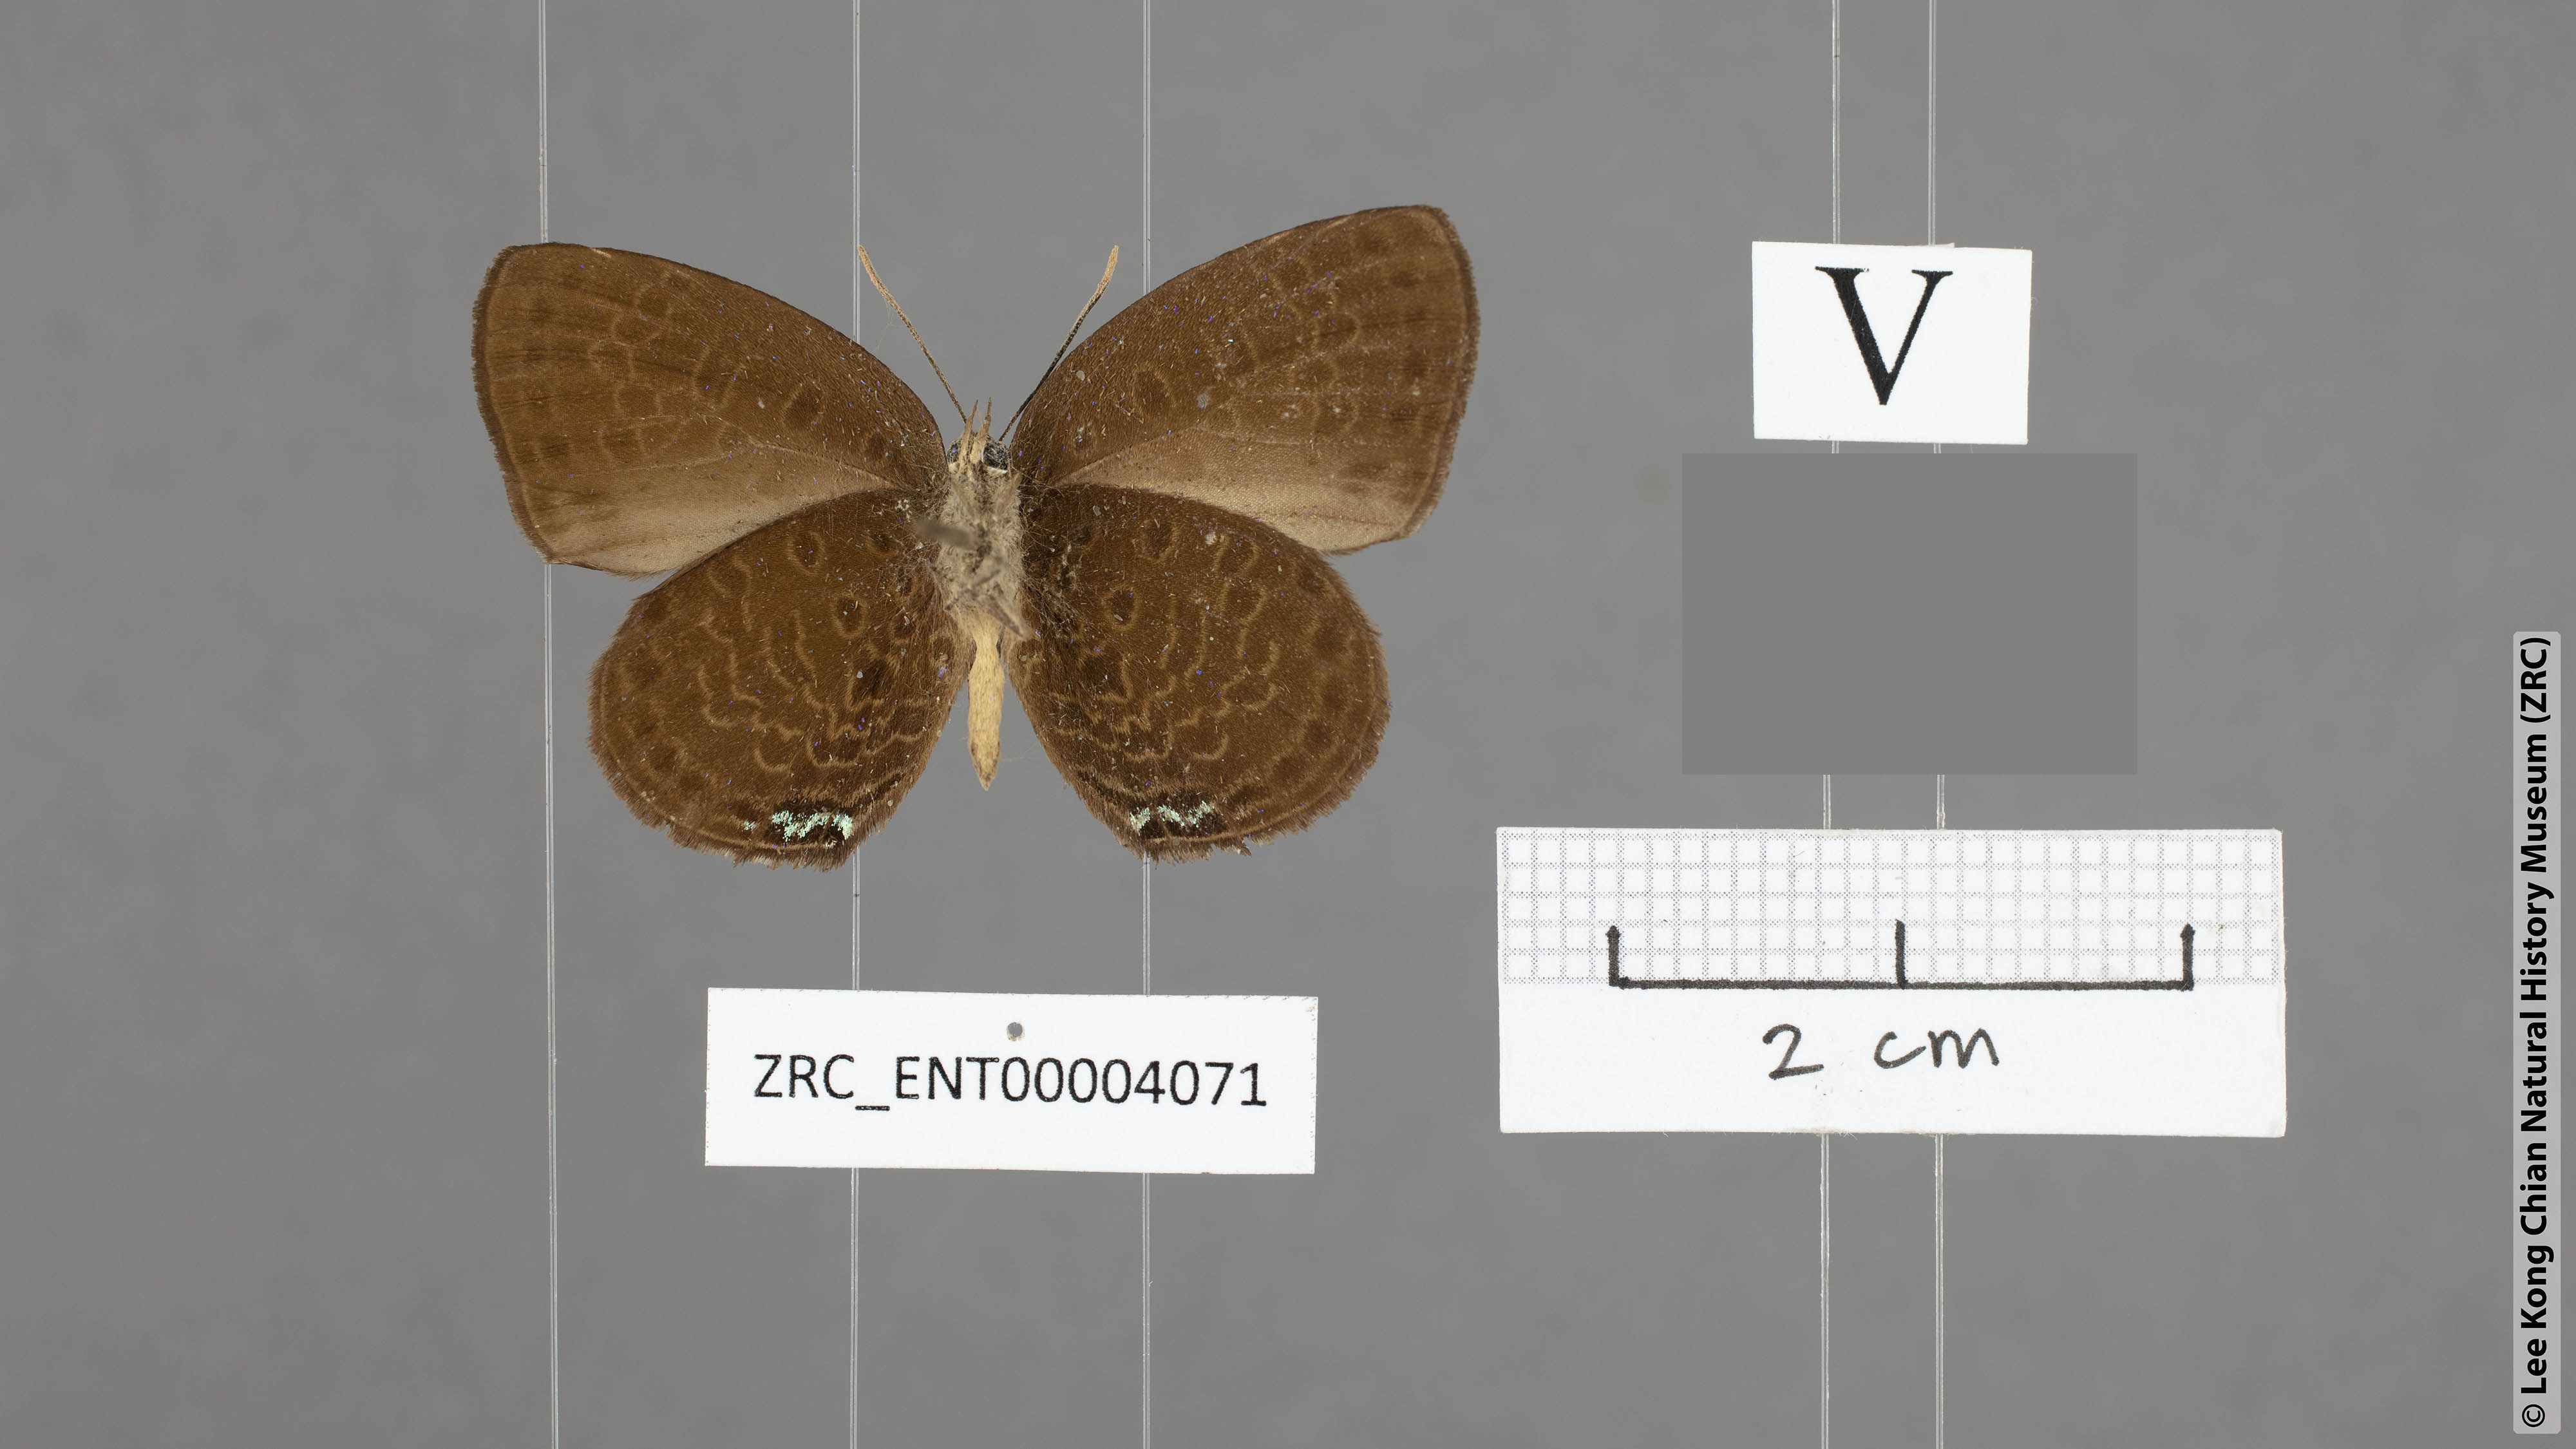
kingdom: Animalia
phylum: Arthropoda
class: Insecta
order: Lepidoptera
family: Lycaenidae
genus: Arhopala
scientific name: Arhopala zylda
